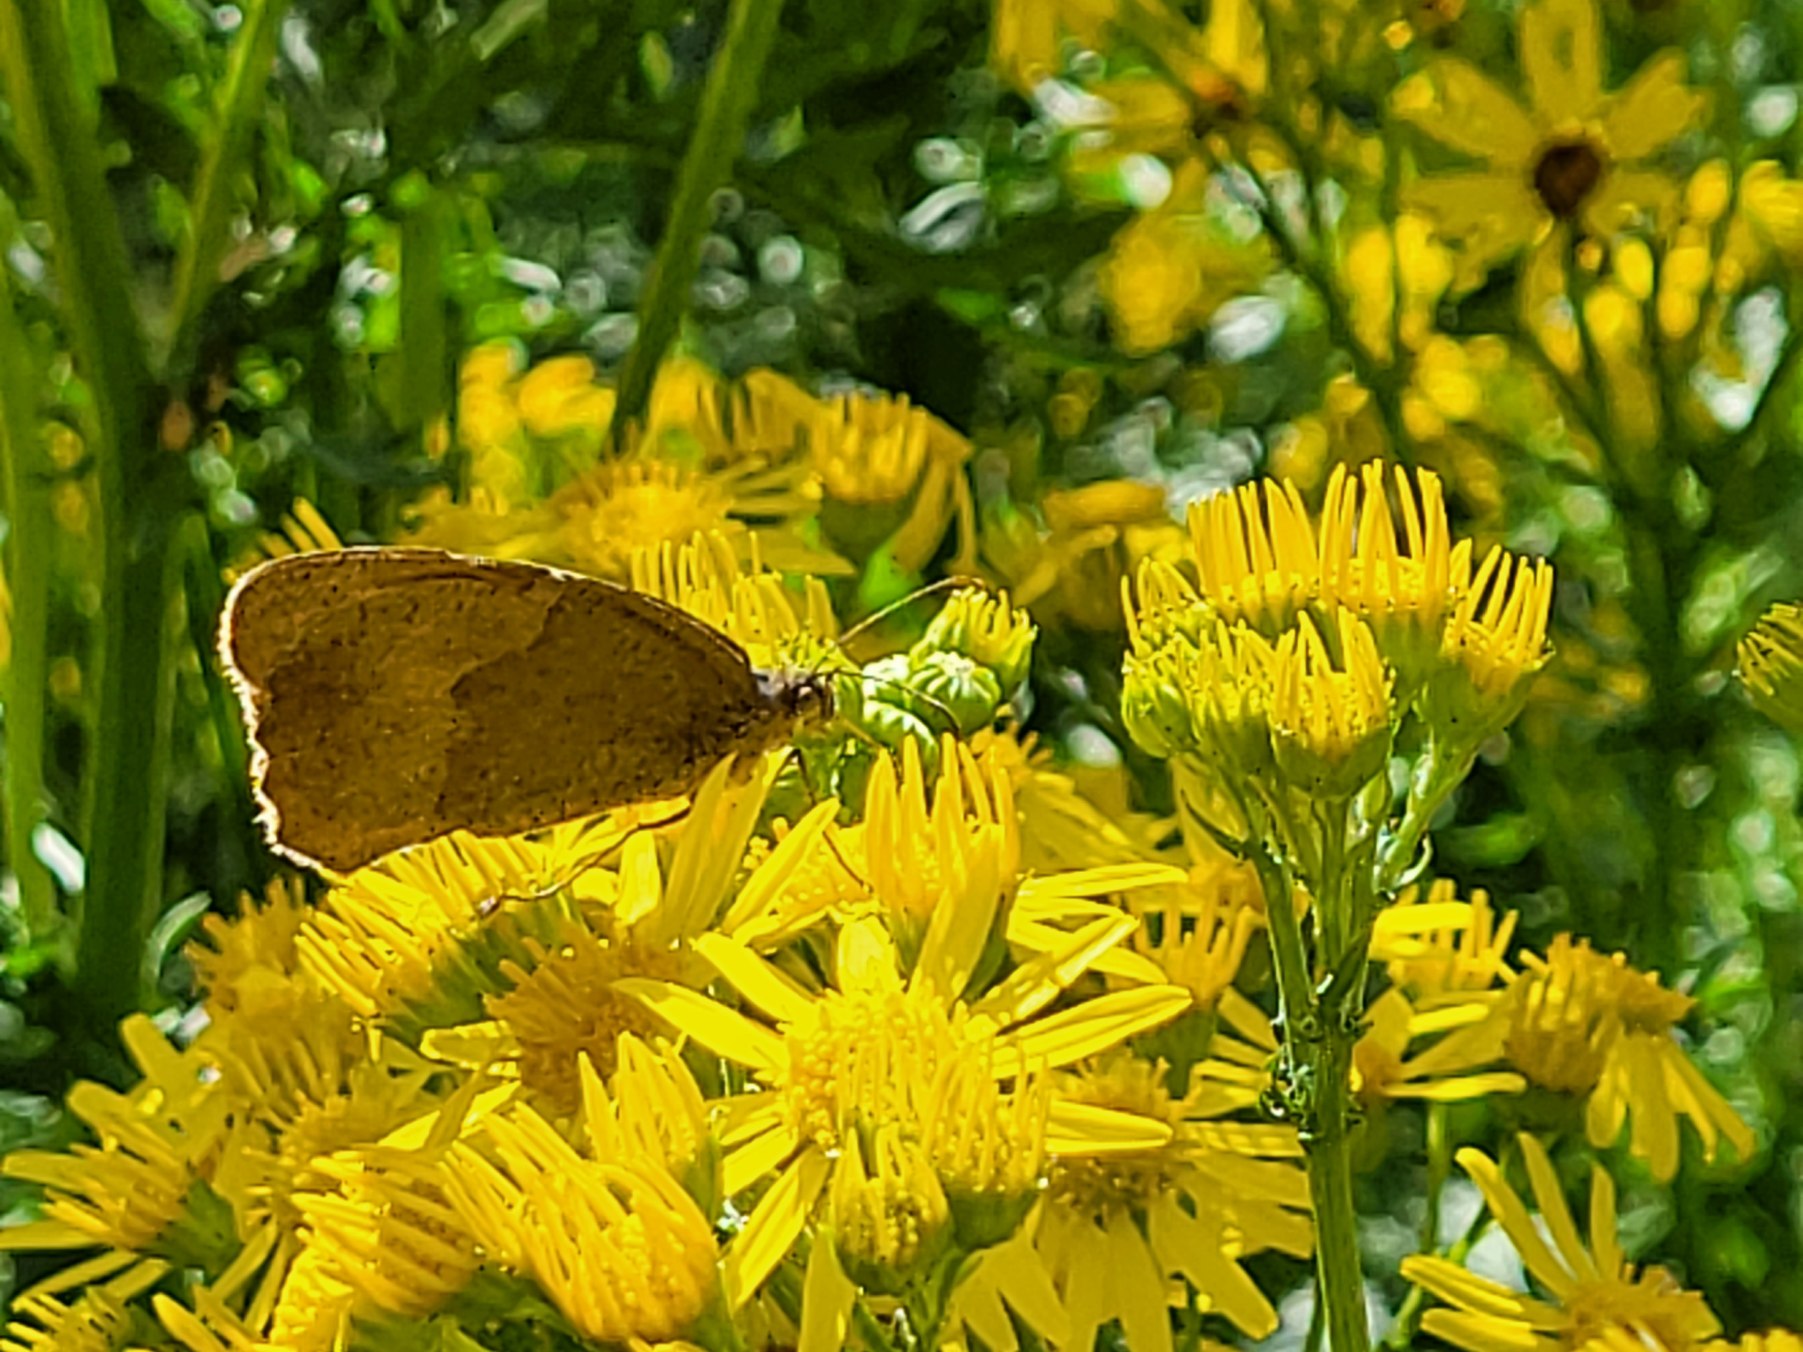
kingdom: Animalia
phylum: Arthropoda
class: Insecta
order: Lepidoptera
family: Nymphalidae
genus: Maniola
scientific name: Maniola jurtina
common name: Græsrandøje
